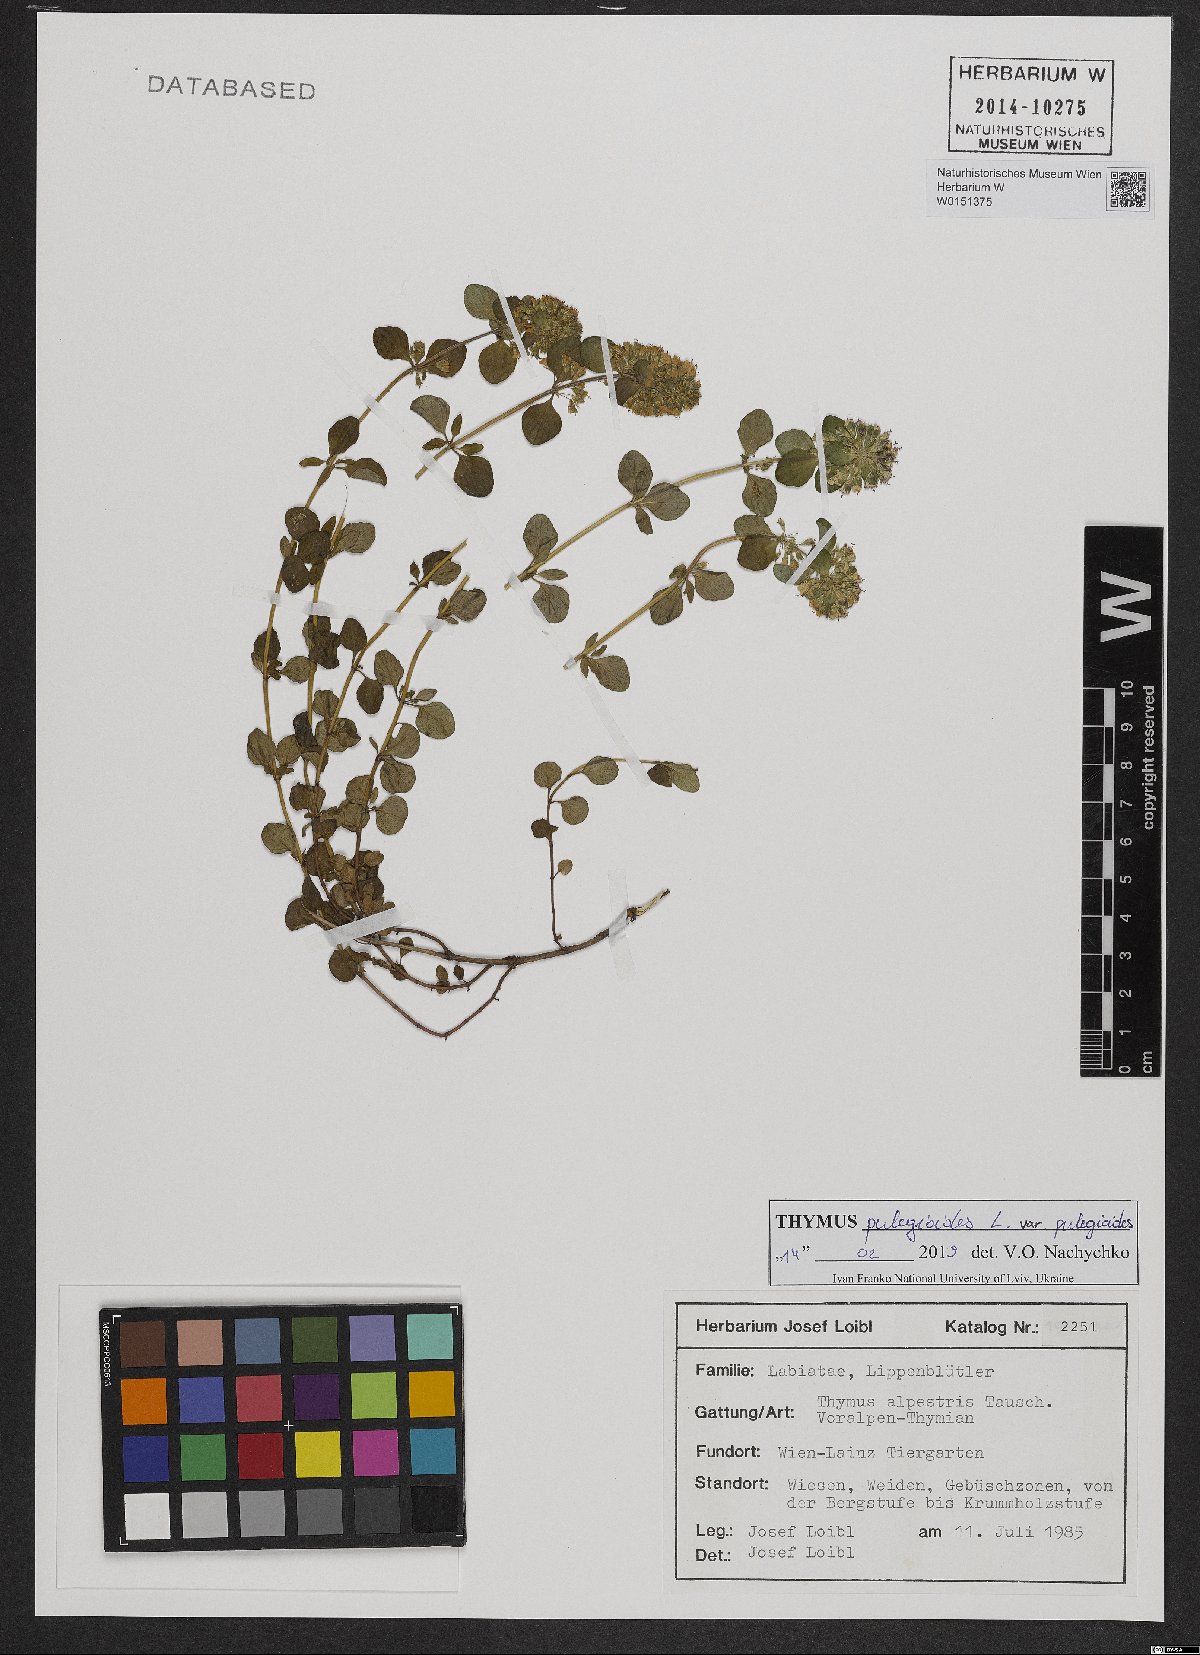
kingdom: Plantae
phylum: Tracheophyta
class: Magnoliopsida
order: Lamiales
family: Lamiaceae
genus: Thymus
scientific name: Thymus alpestris
